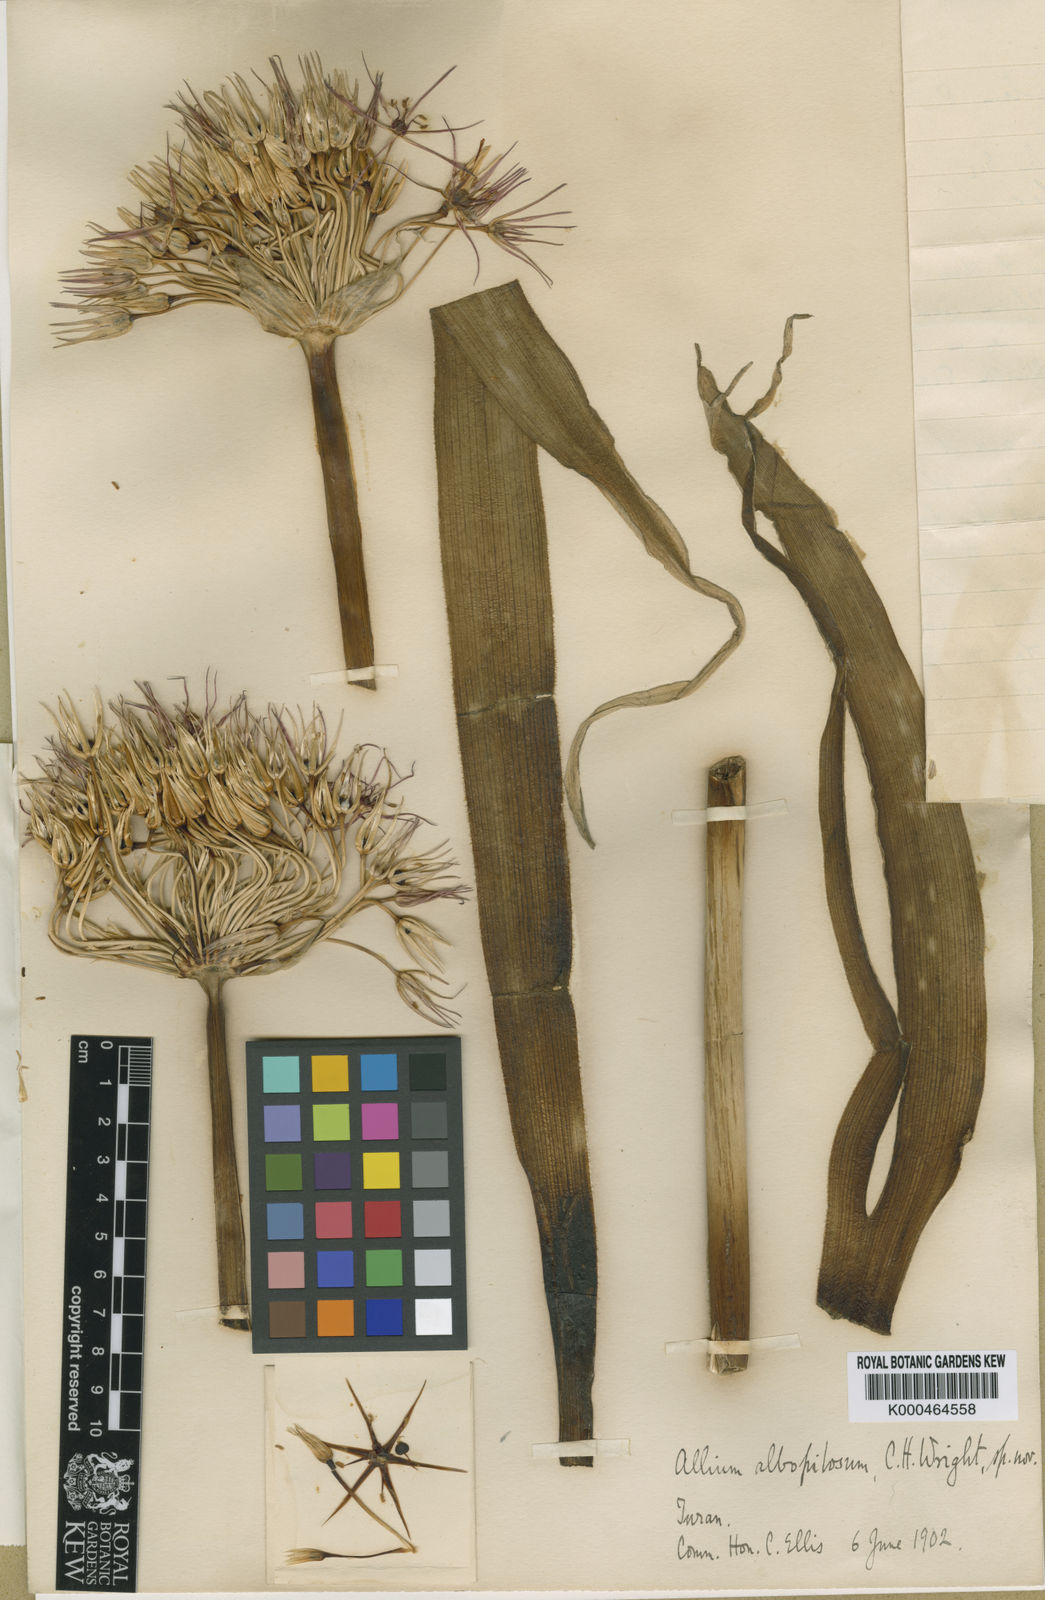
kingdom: Plantae
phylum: Tracheophyta
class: Liliopsida
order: Asparagales
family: Amaryllidaceae
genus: Allium
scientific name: Allium cristophii
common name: Persian onion
